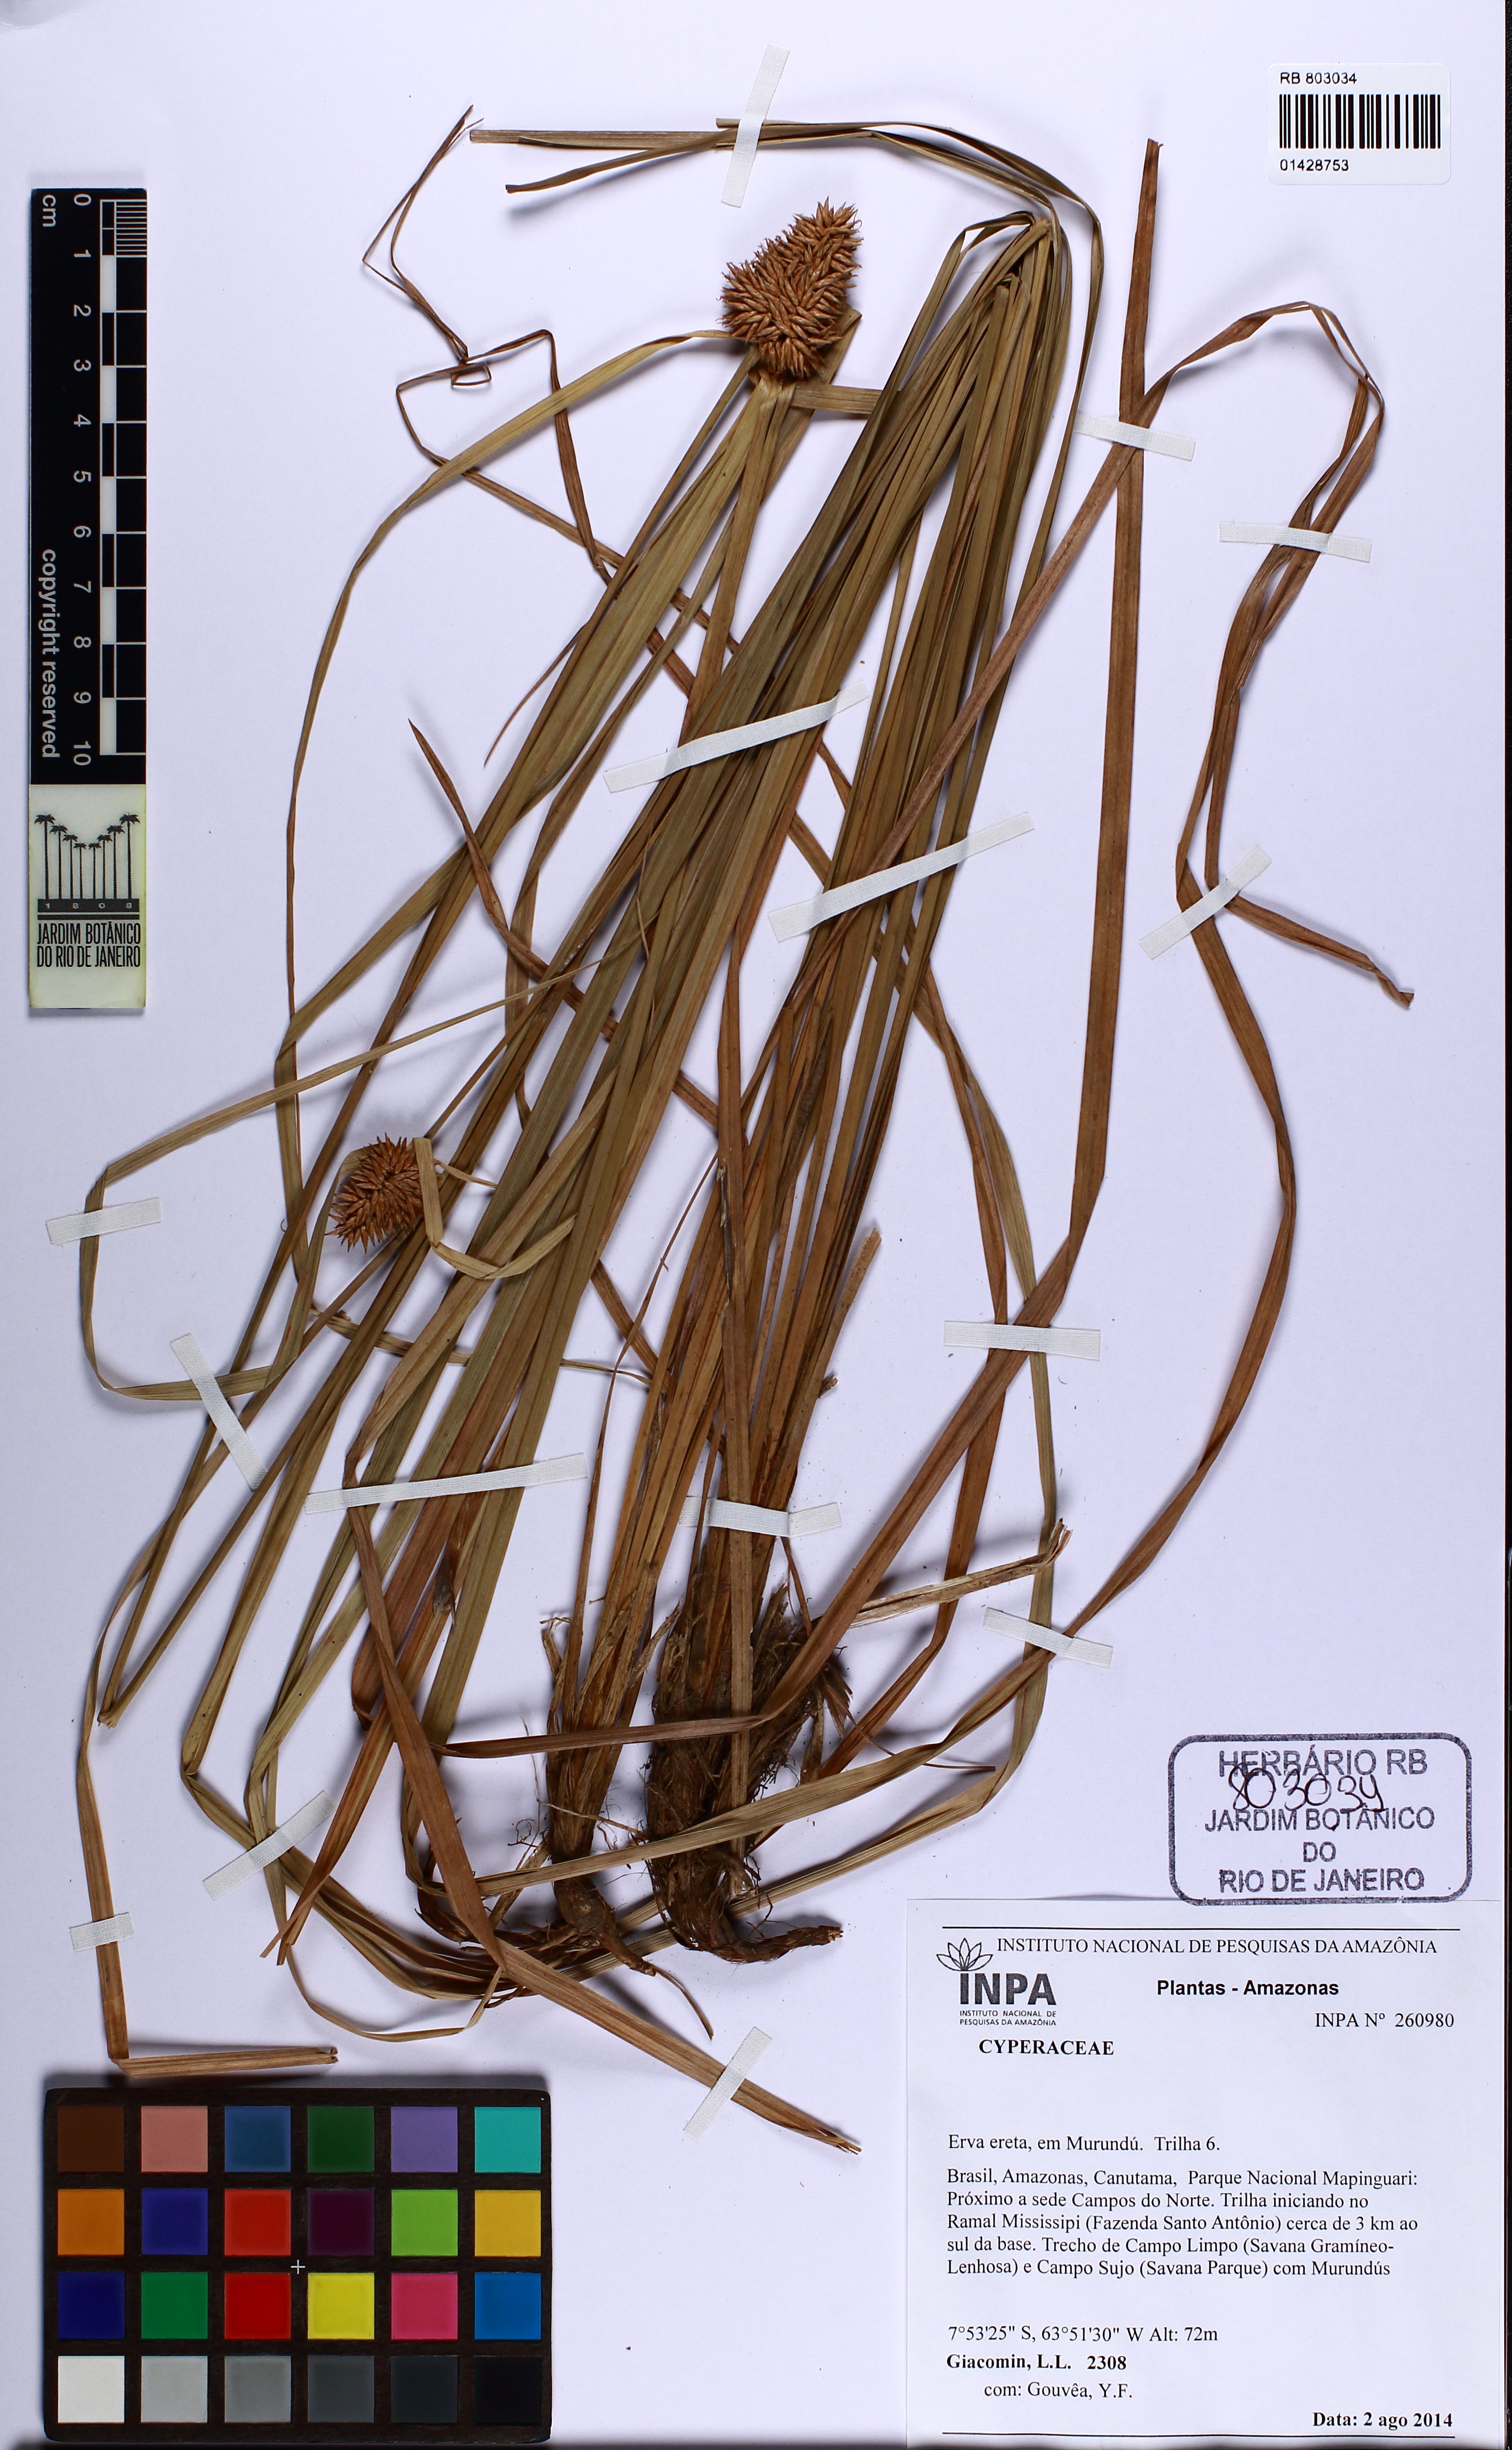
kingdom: Plantae
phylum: Tracheophyta
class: Liliopsida
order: Poales
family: Cyperaceae
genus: Rhynchospora
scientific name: Rhynchospora cephalotes
